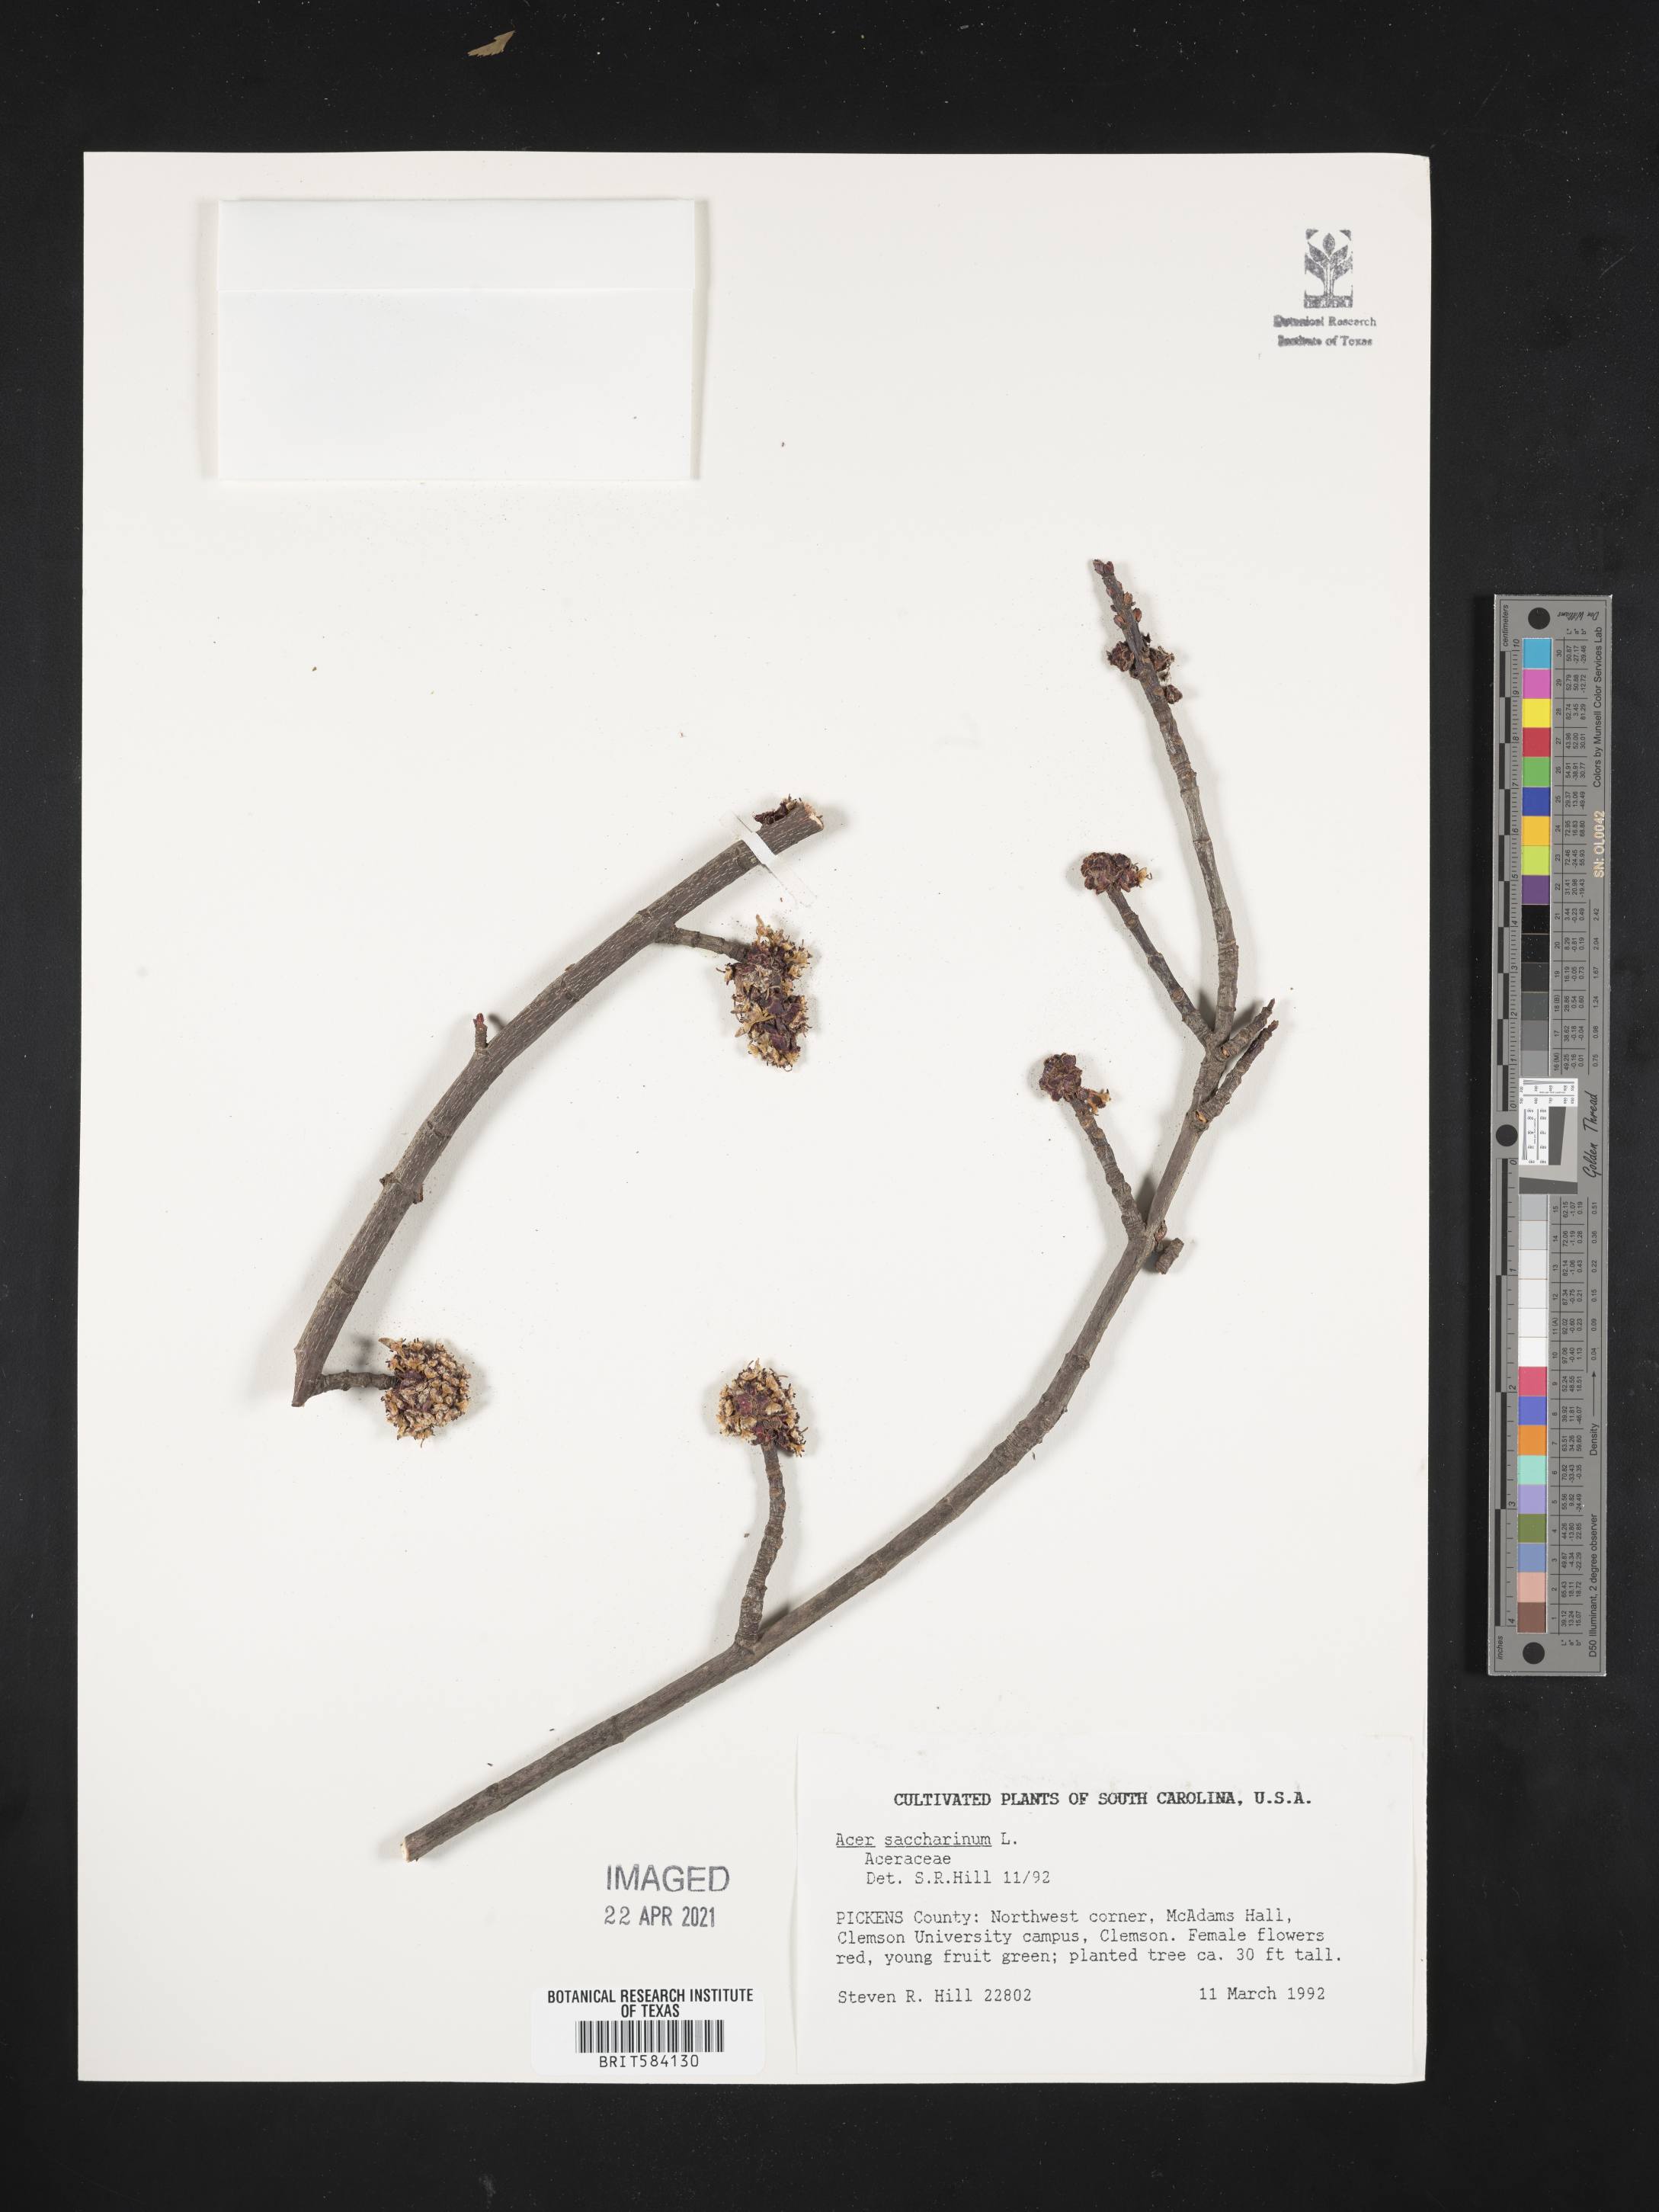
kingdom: Plantae
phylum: Tracheophyta
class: Magnoliopsida
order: Sapindales
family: Sapindaceae
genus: Acer
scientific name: Acer saccharinum
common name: Silver maple
